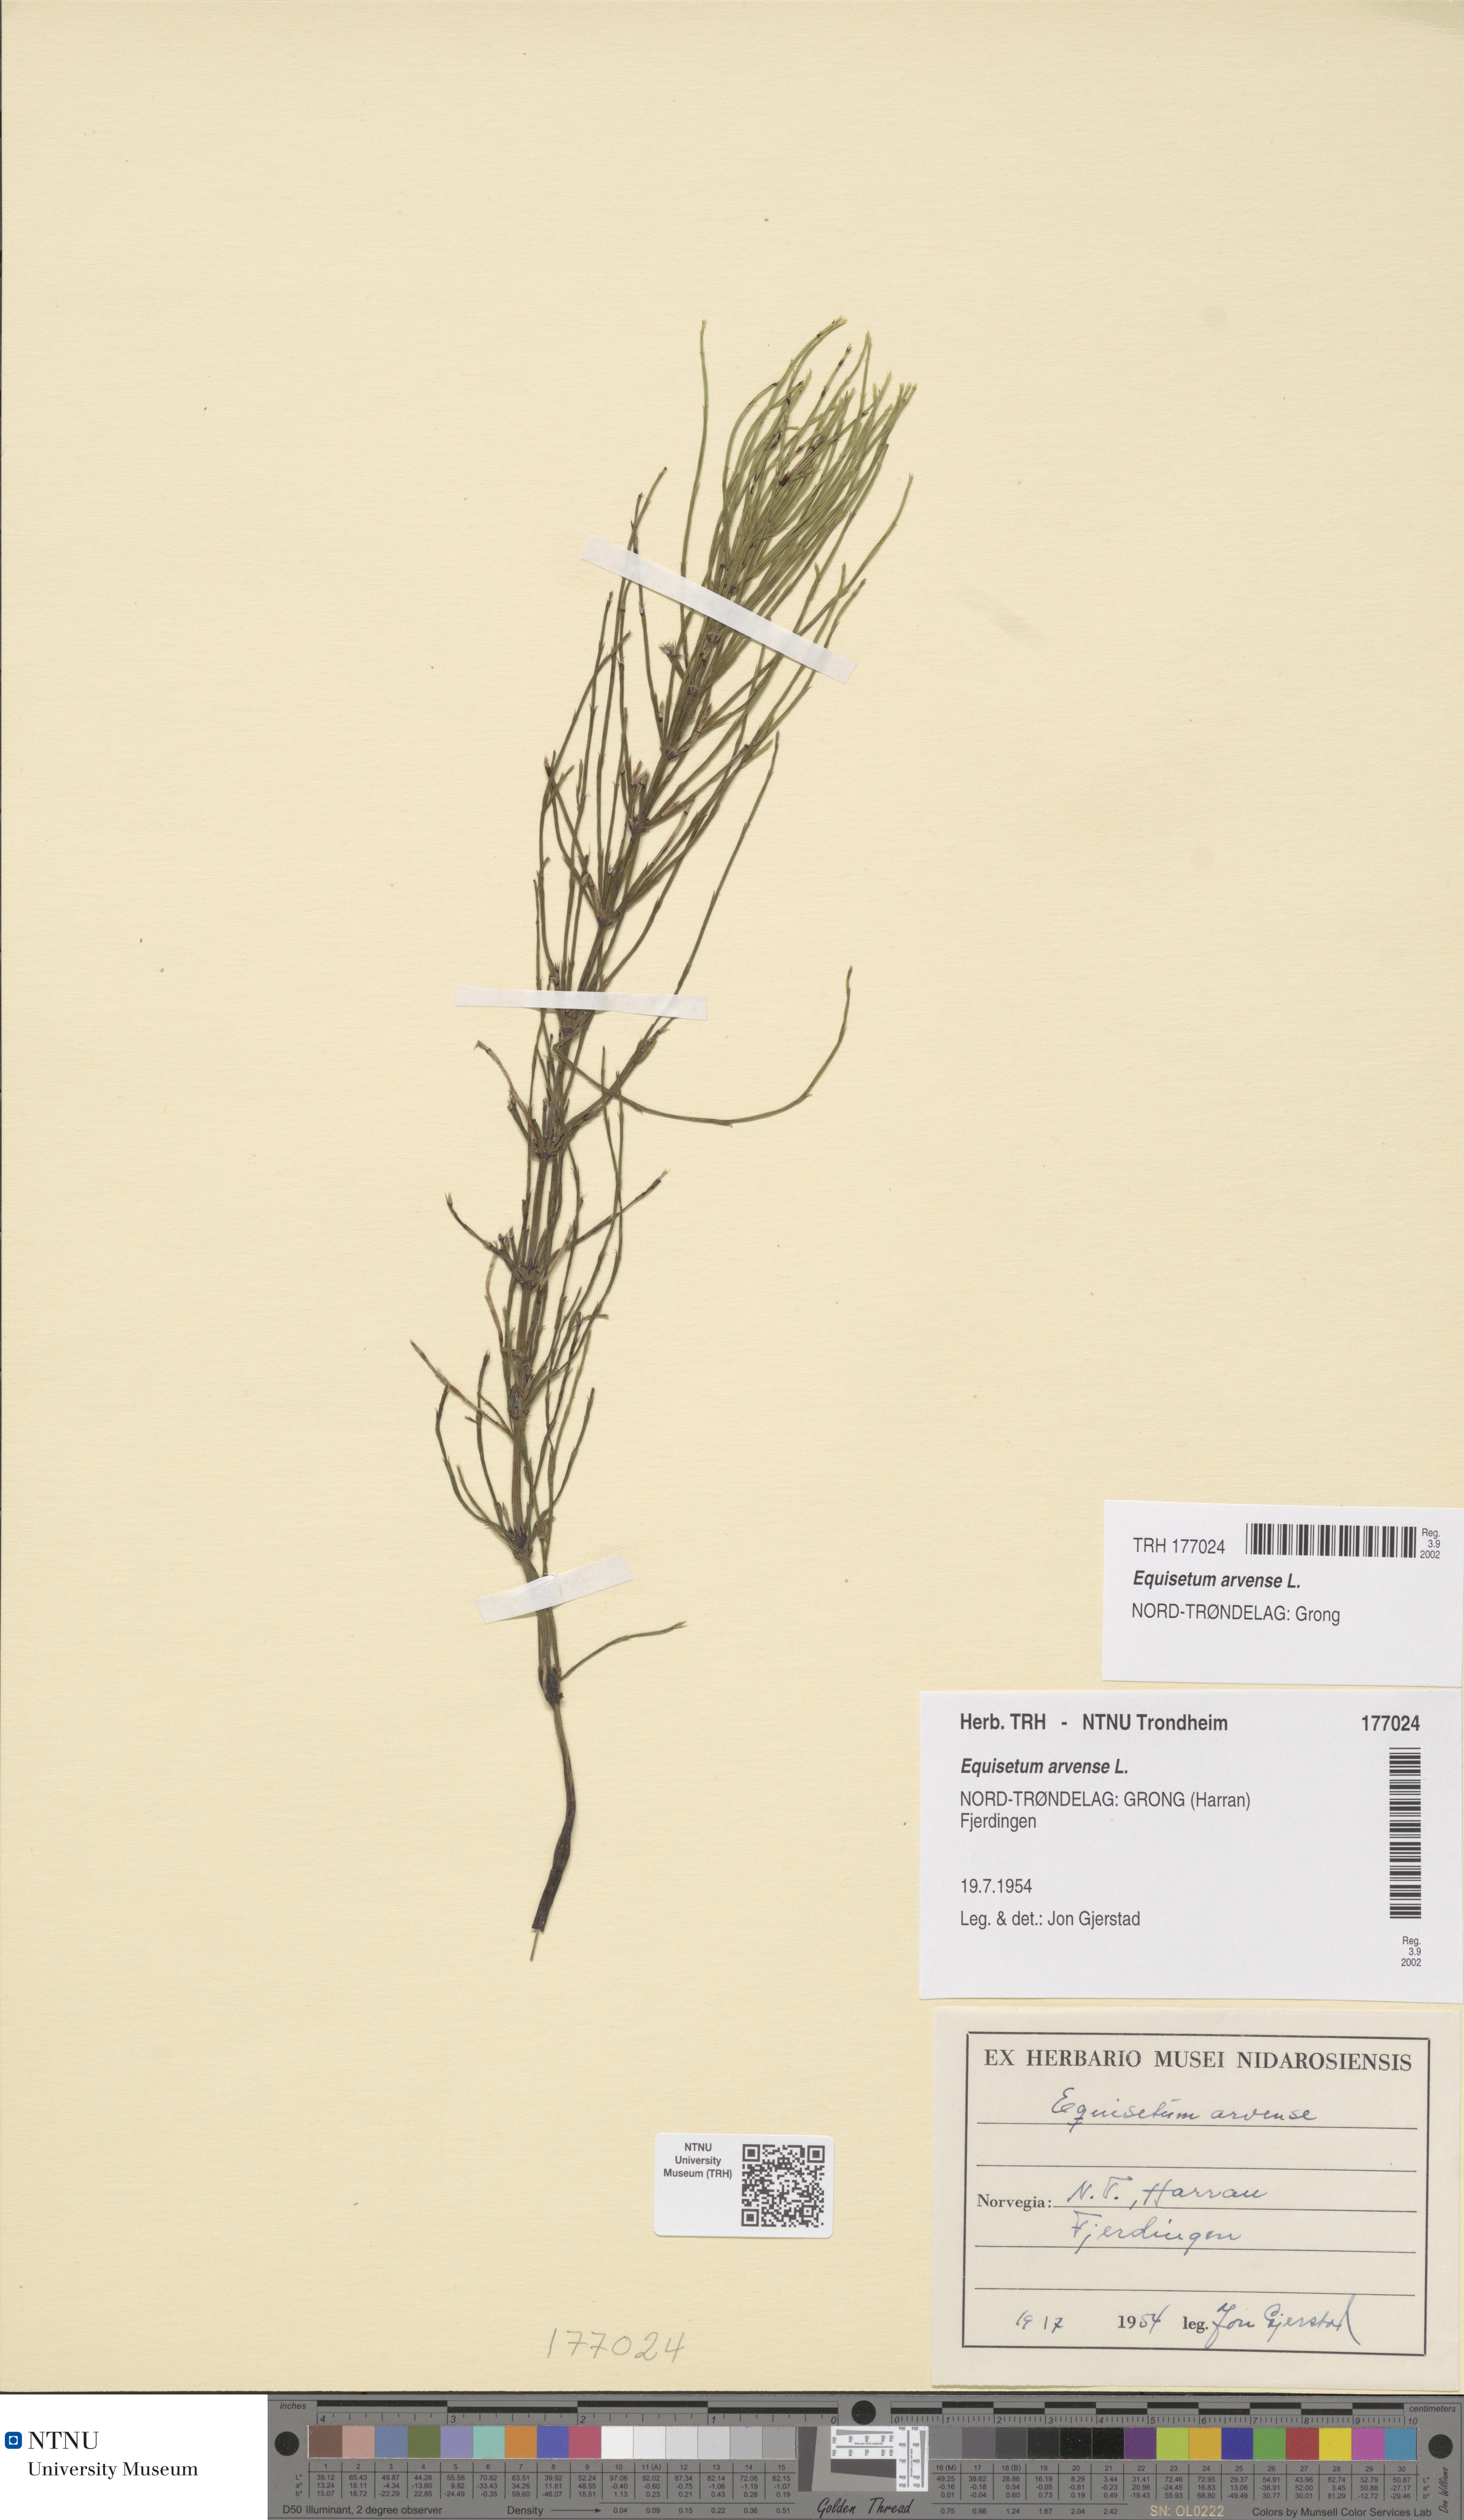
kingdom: Plantae
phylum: Tracheophyta
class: Polypodiopsida
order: Equisetales
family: Equisetaceae
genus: Equisetum
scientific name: Equisetum arvense
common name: Field horsetail
